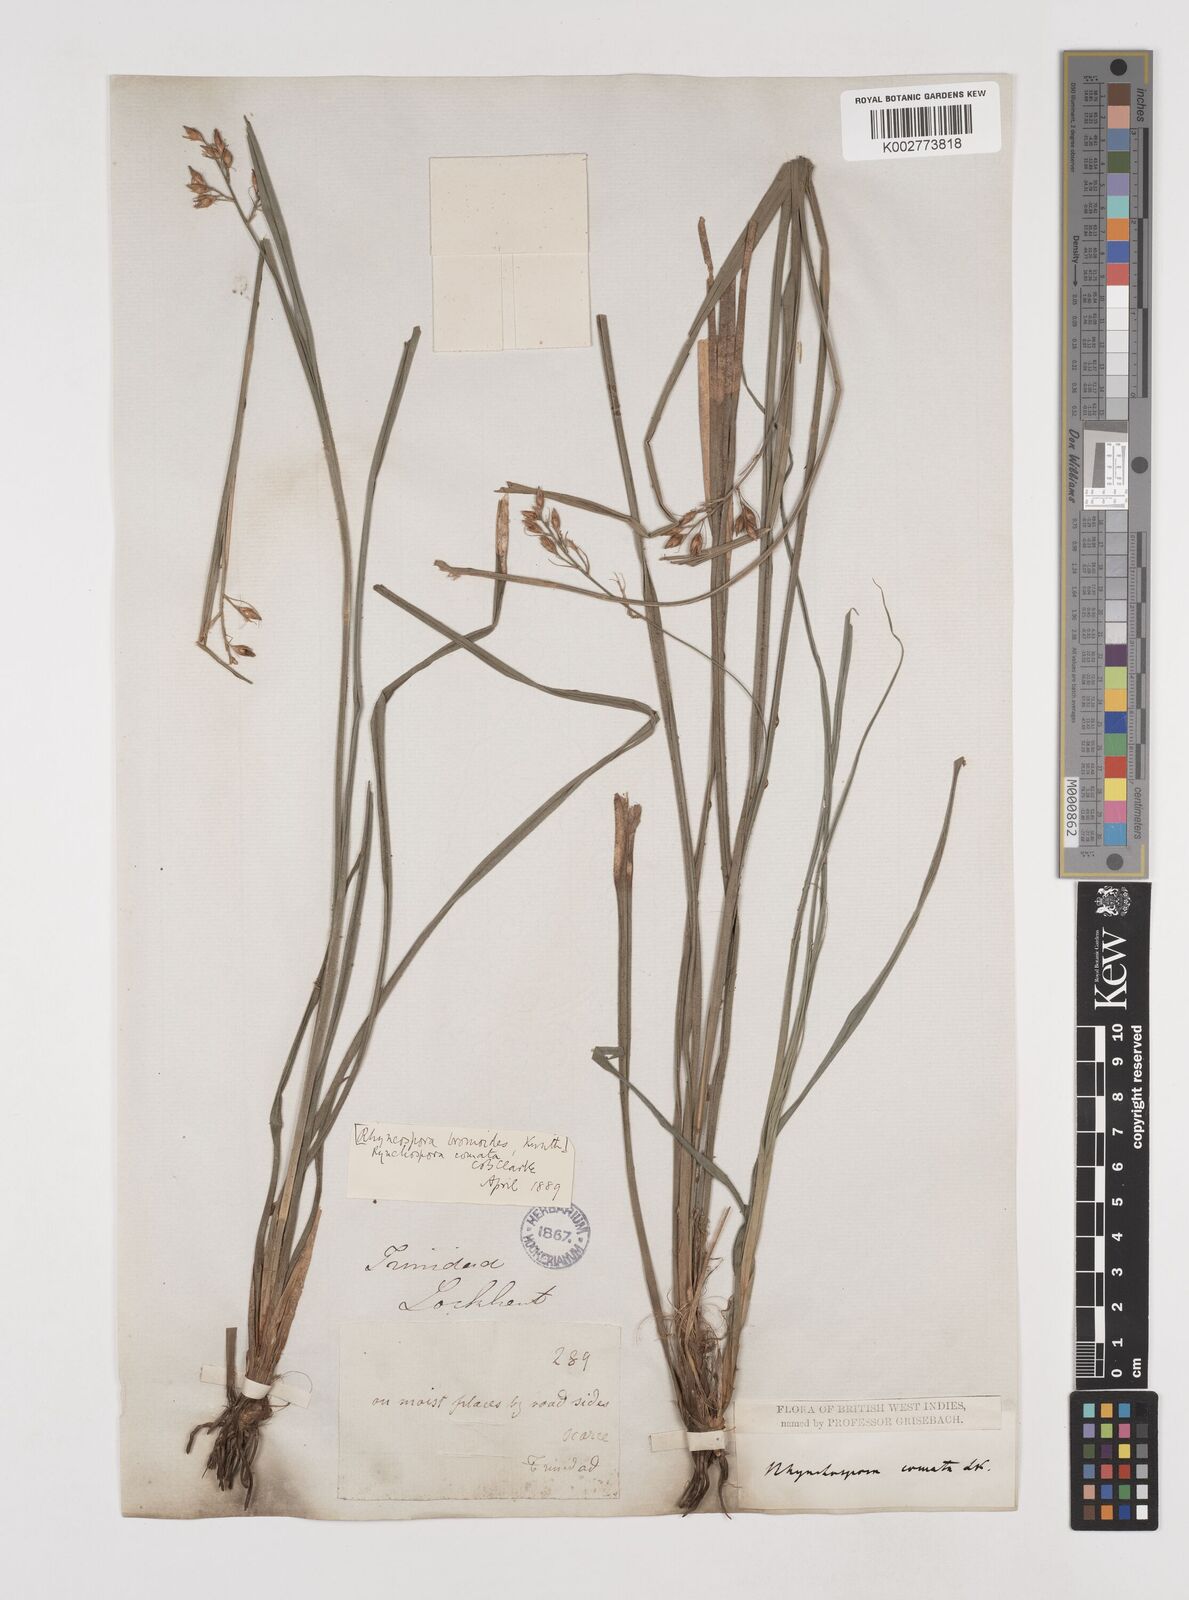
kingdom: Plantae
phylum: Tracheophyta
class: Liliopsida
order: Poales
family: Cyperaceae
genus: Rhynchospora
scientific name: Rhynchospora comata
